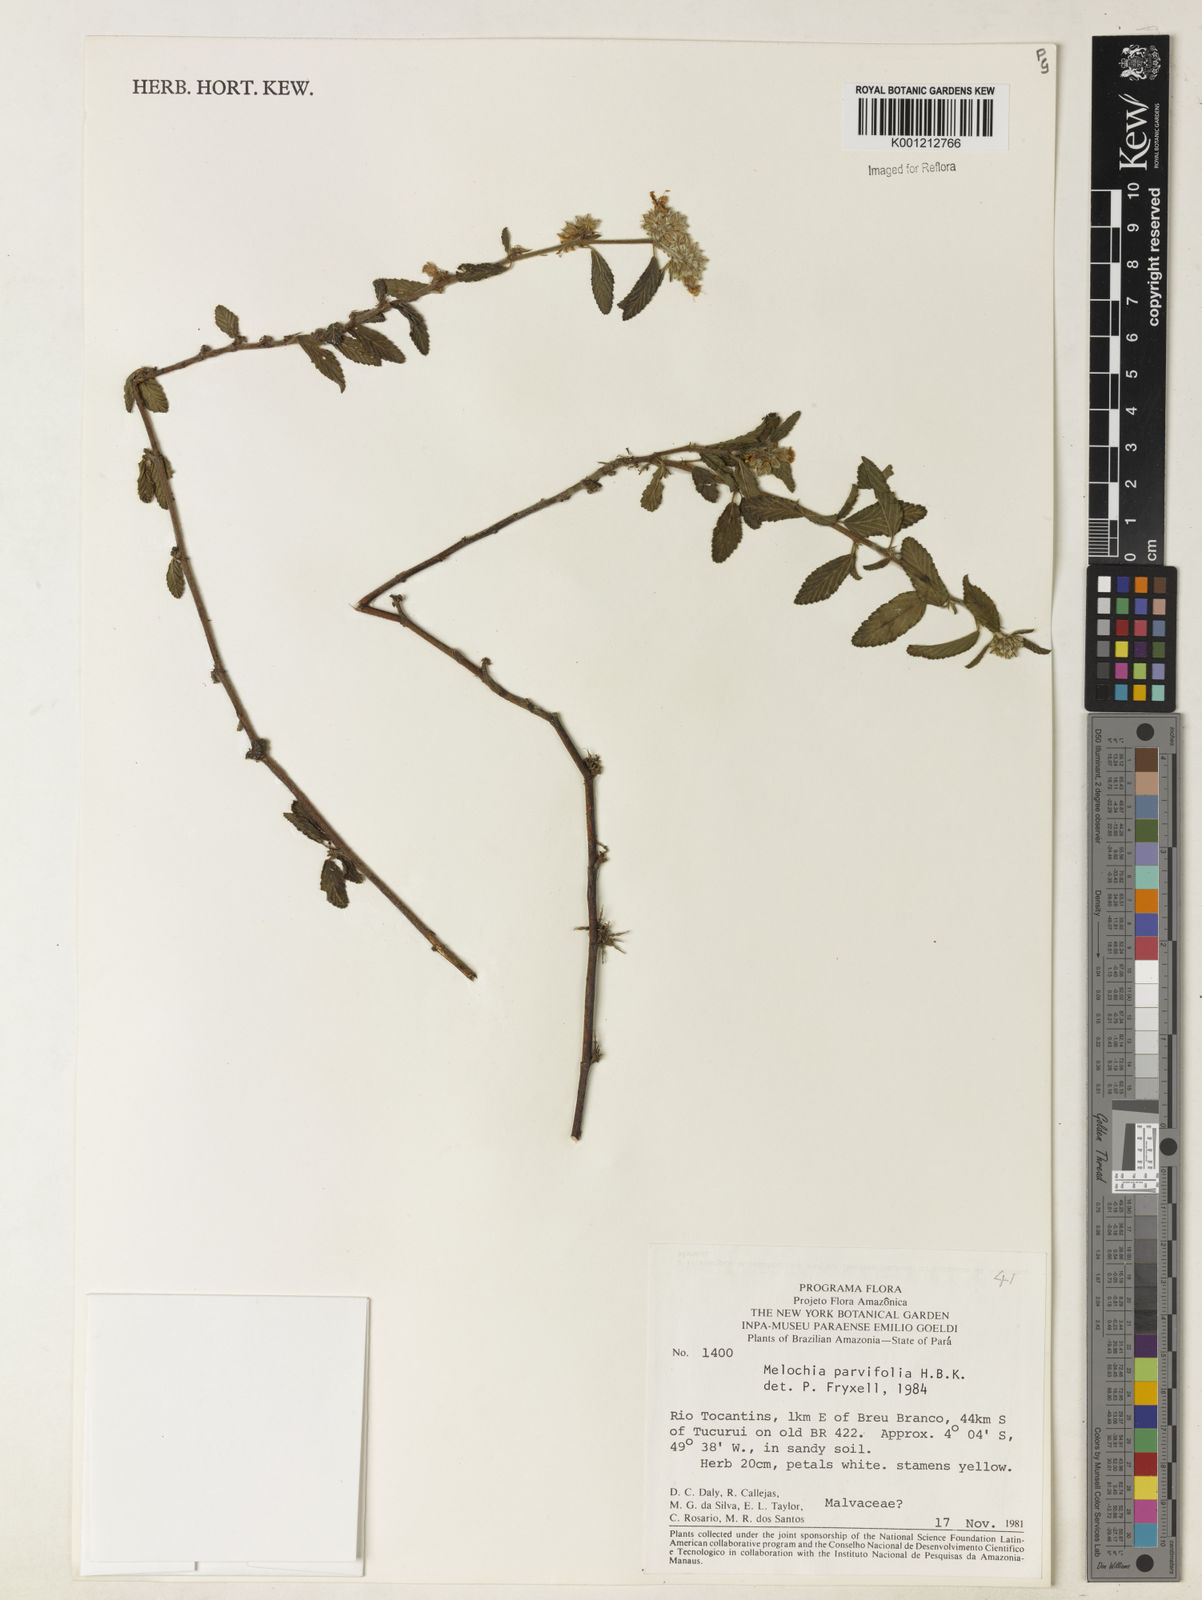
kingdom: Plantae
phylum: Tracheophyta
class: Magnoliopsida
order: Malvales
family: Malvaceae
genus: Melochia
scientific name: Melochia
